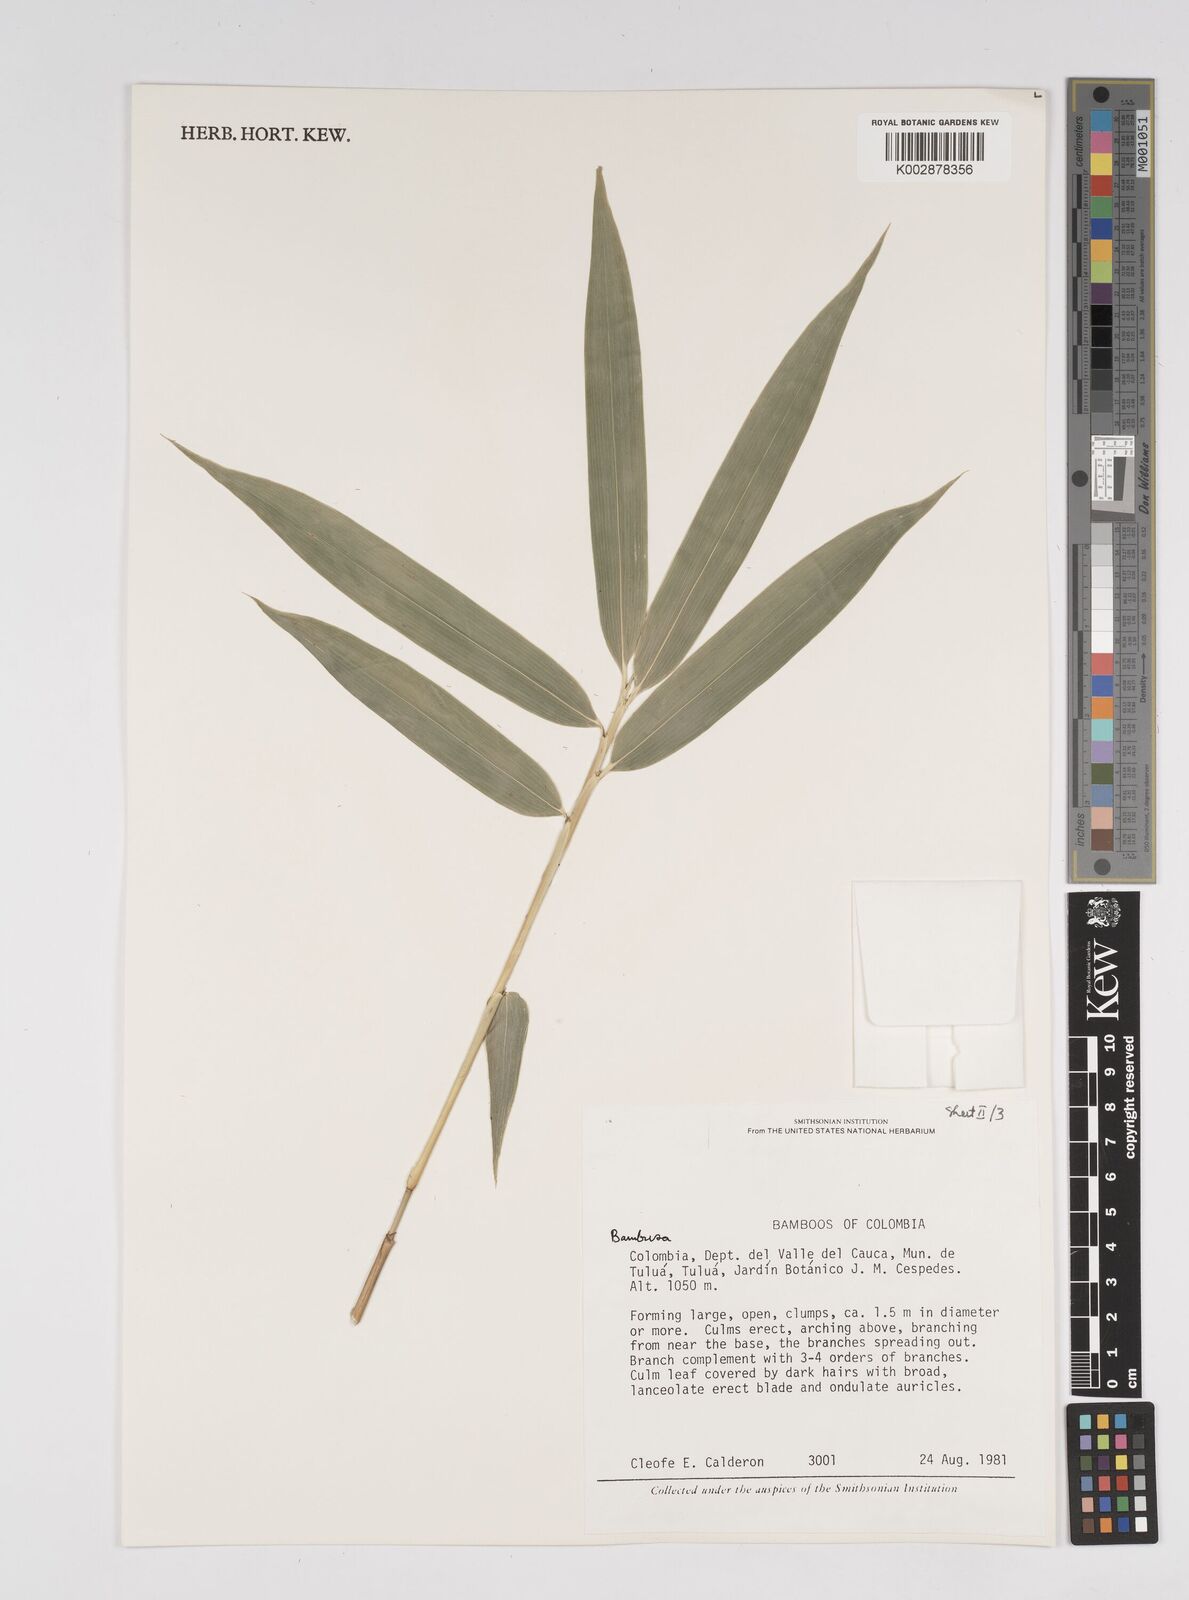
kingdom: Plantae
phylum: Tracheophyta
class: Liliopsida
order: Poales
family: Poaceae
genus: Bambusa
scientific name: Bambusa nutans
